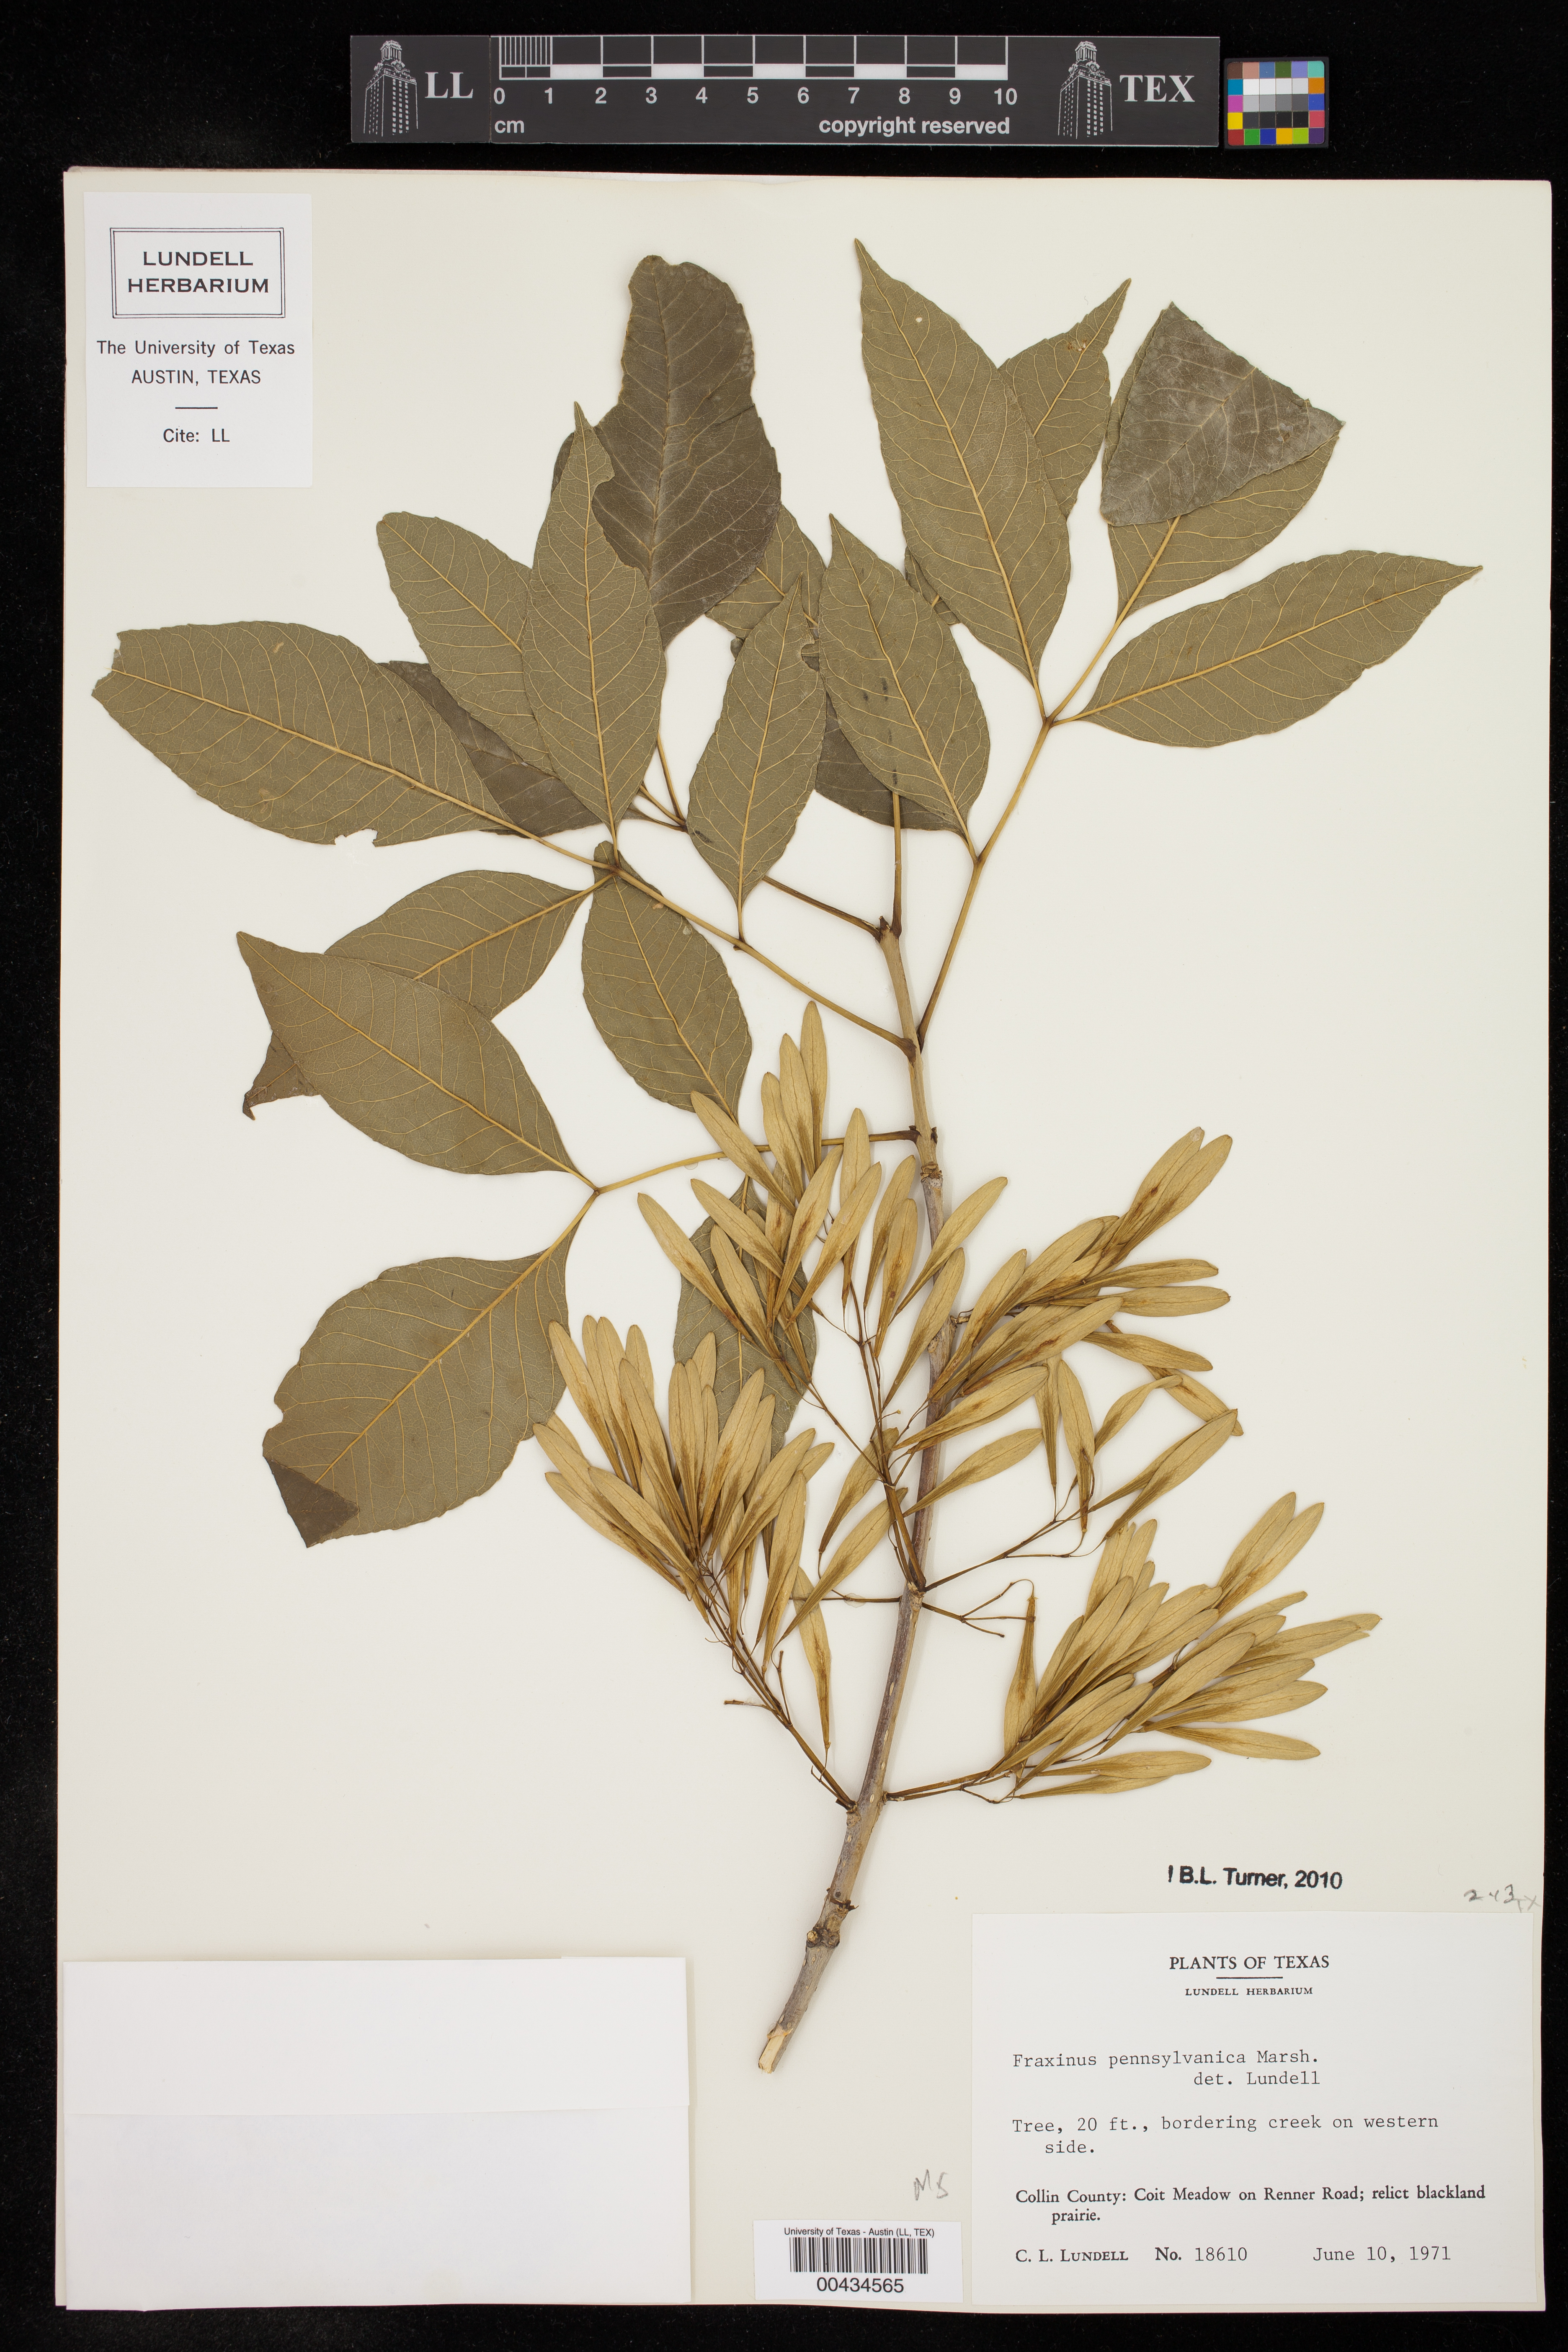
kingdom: Plantae
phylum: Tracheophyta
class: Magnoliopsida
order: Lamiales
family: Oleaceae
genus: Fraxinus
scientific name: Fraxinus pennsylvanica
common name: Green ash
